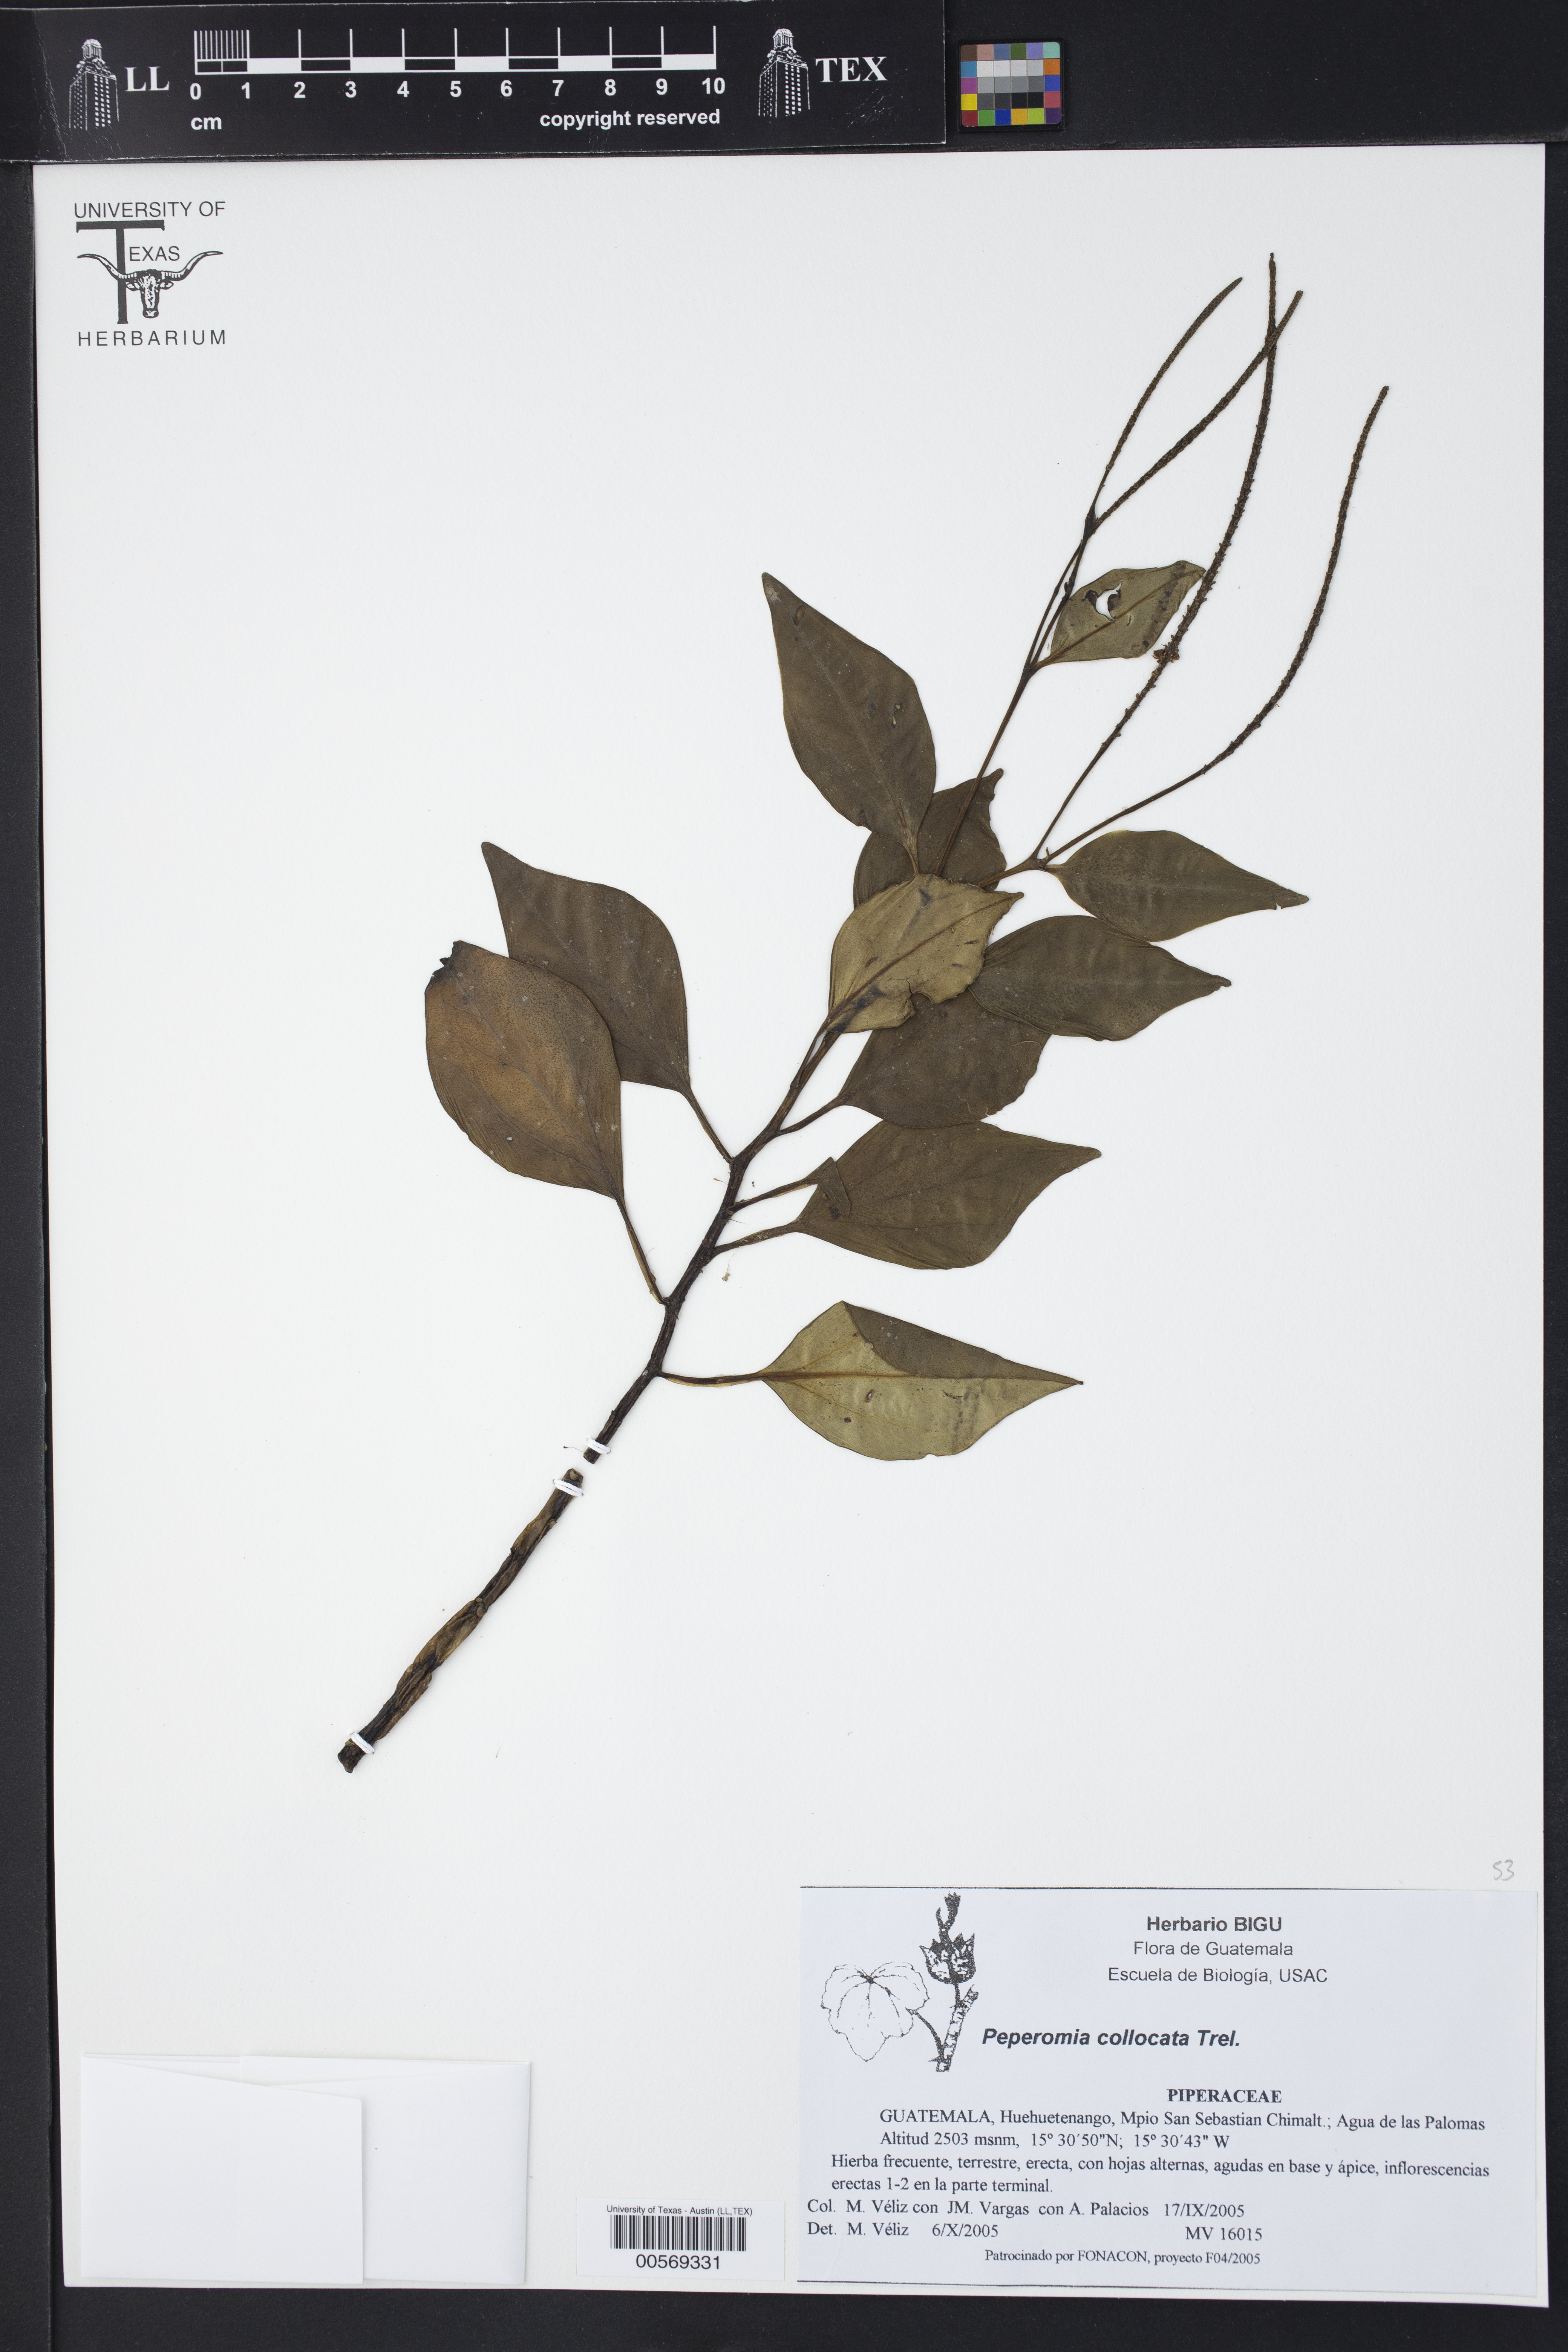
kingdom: Plantae
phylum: Tracheophyta
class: Magnoliopsida
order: Piperales
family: Piperaceae
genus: Peperomia
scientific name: Peperomia san-joseana
